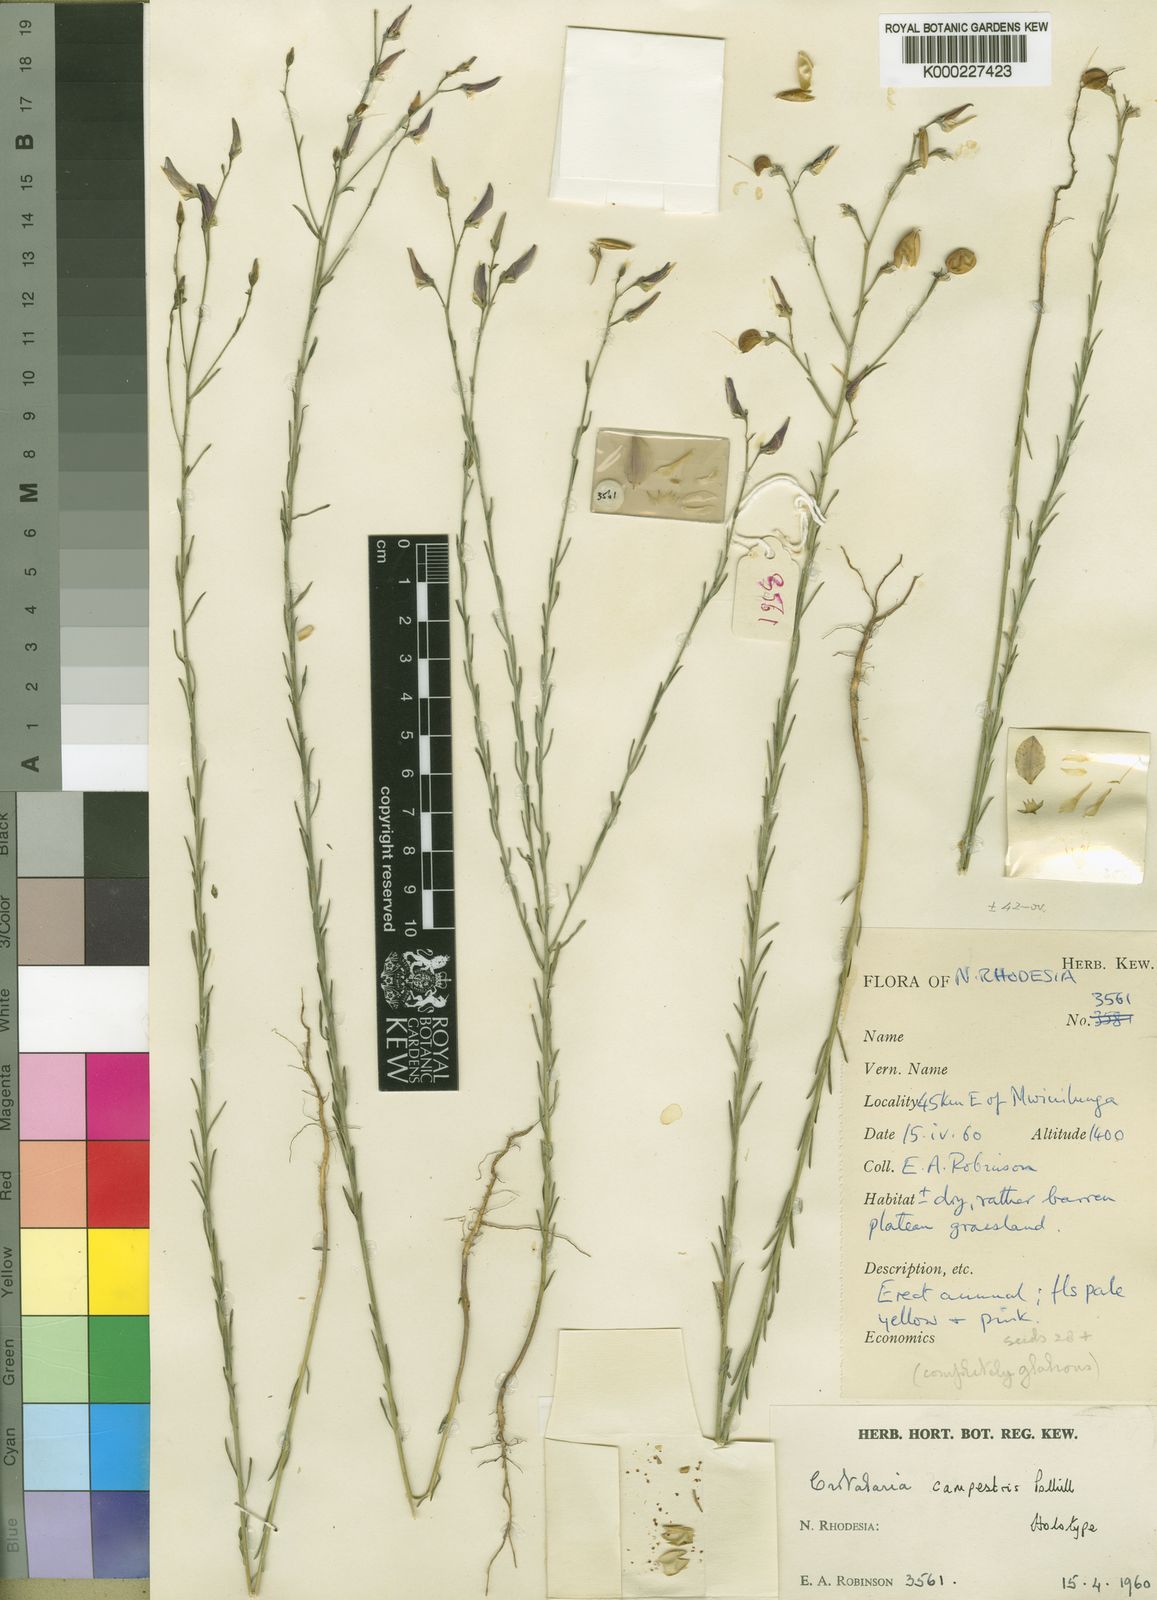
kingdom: Plantae
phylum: Tracheophyta
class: Magnoliopsida
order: Fabales
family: Fabaceae
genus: Crotalaria
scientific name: Crotalaria campestris
